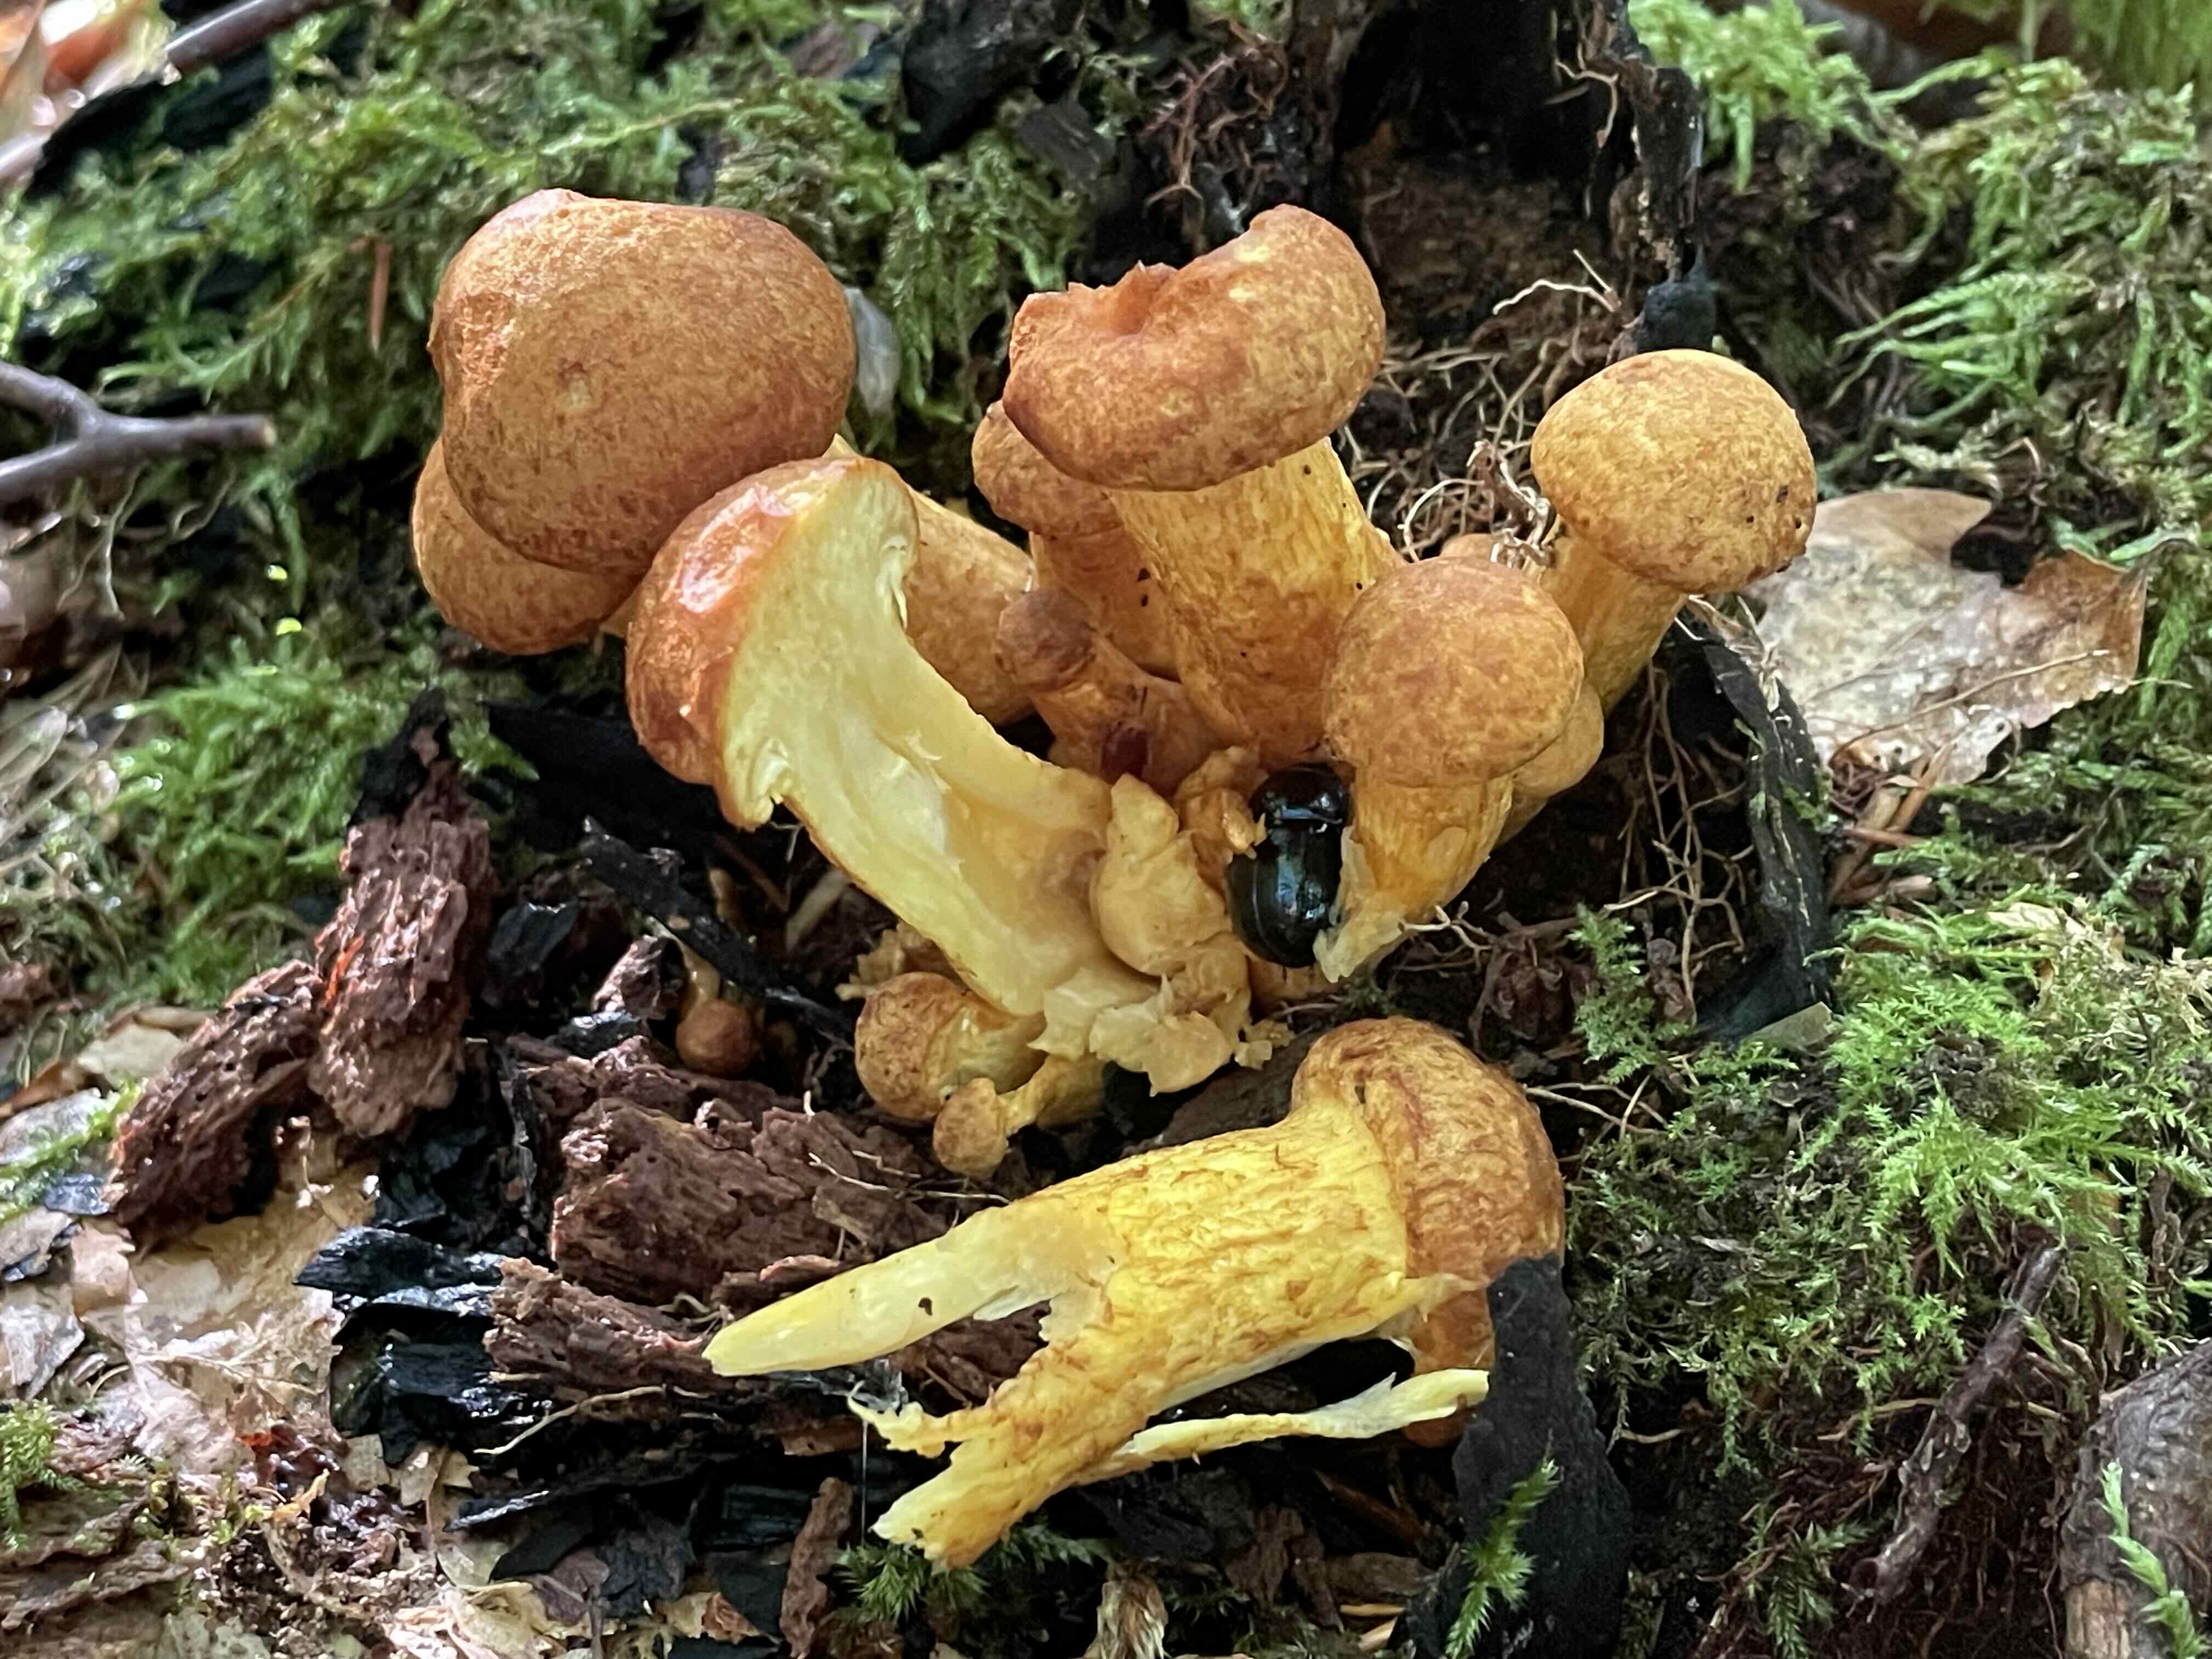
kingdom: Fungi
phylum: Basidiomycota
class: Agaricomycetes
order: Agaricales
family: Hymenogastraceae
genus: Gymnopilus
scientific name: Gymnopilus spectabilis
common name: fibret flammehat
